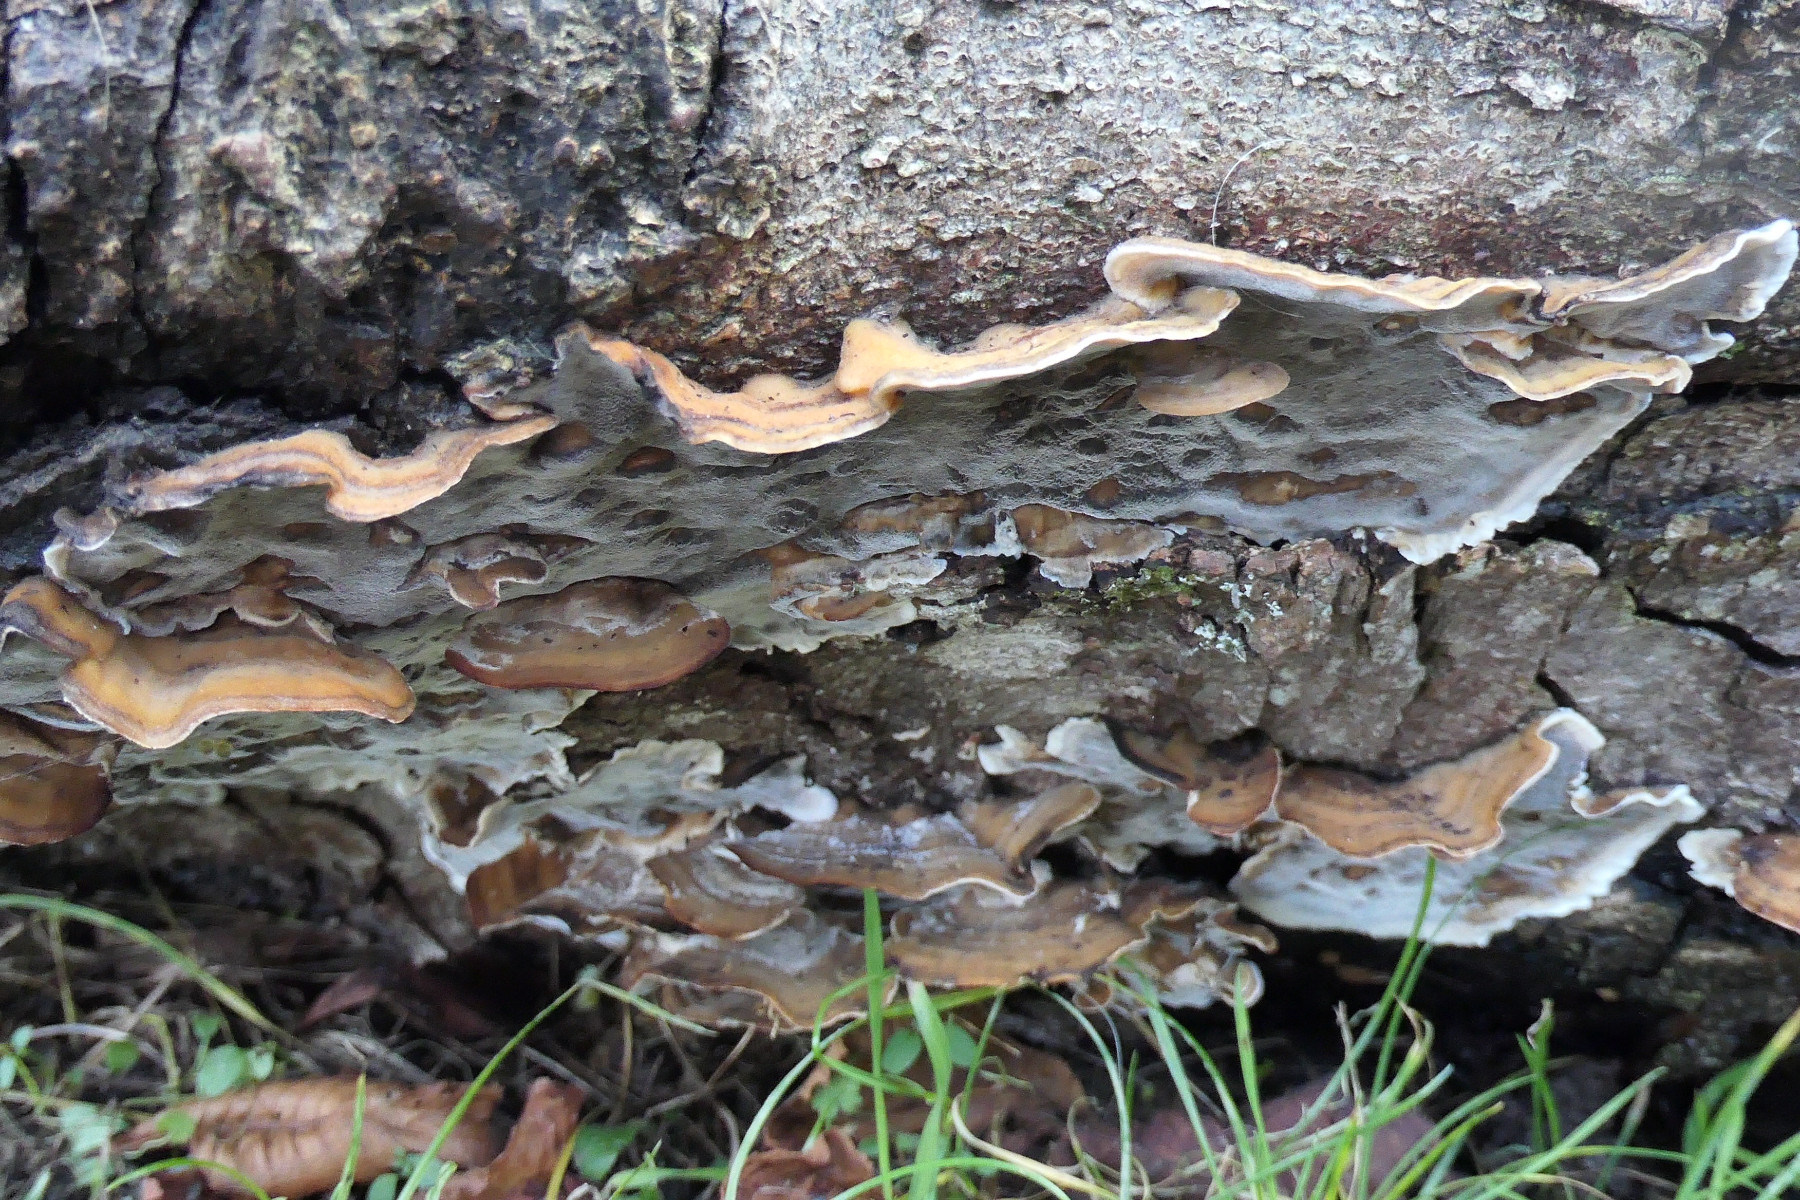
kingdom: Fungi
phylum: Basidiomycota
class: Agaricomycetes
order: Polyporales
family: Phanerochaetaceae
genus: Bjerkandera
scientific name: Bjerkandera adusta
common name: sveden sodporesvamp
